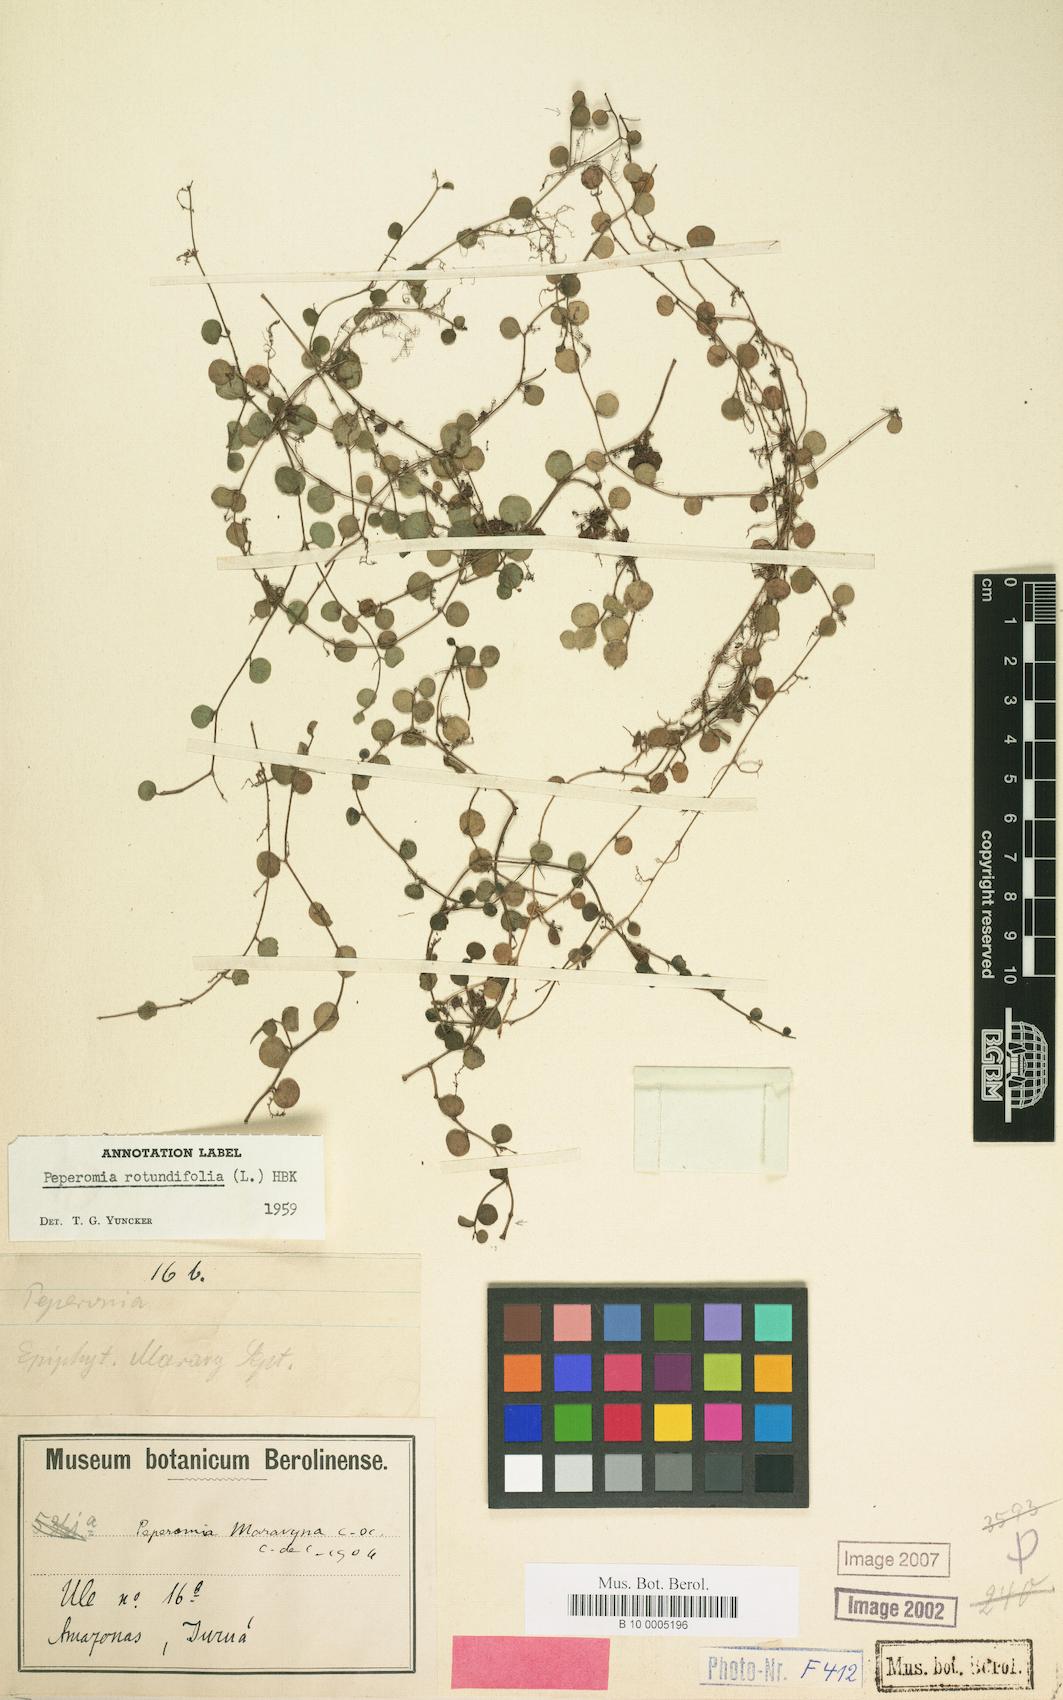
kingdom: Plantae
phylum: Tracheophyta
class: Magnoliopsida
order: Piperales
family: Piperaceae
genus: Peperomia
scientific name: Peperomia rotundifolia
